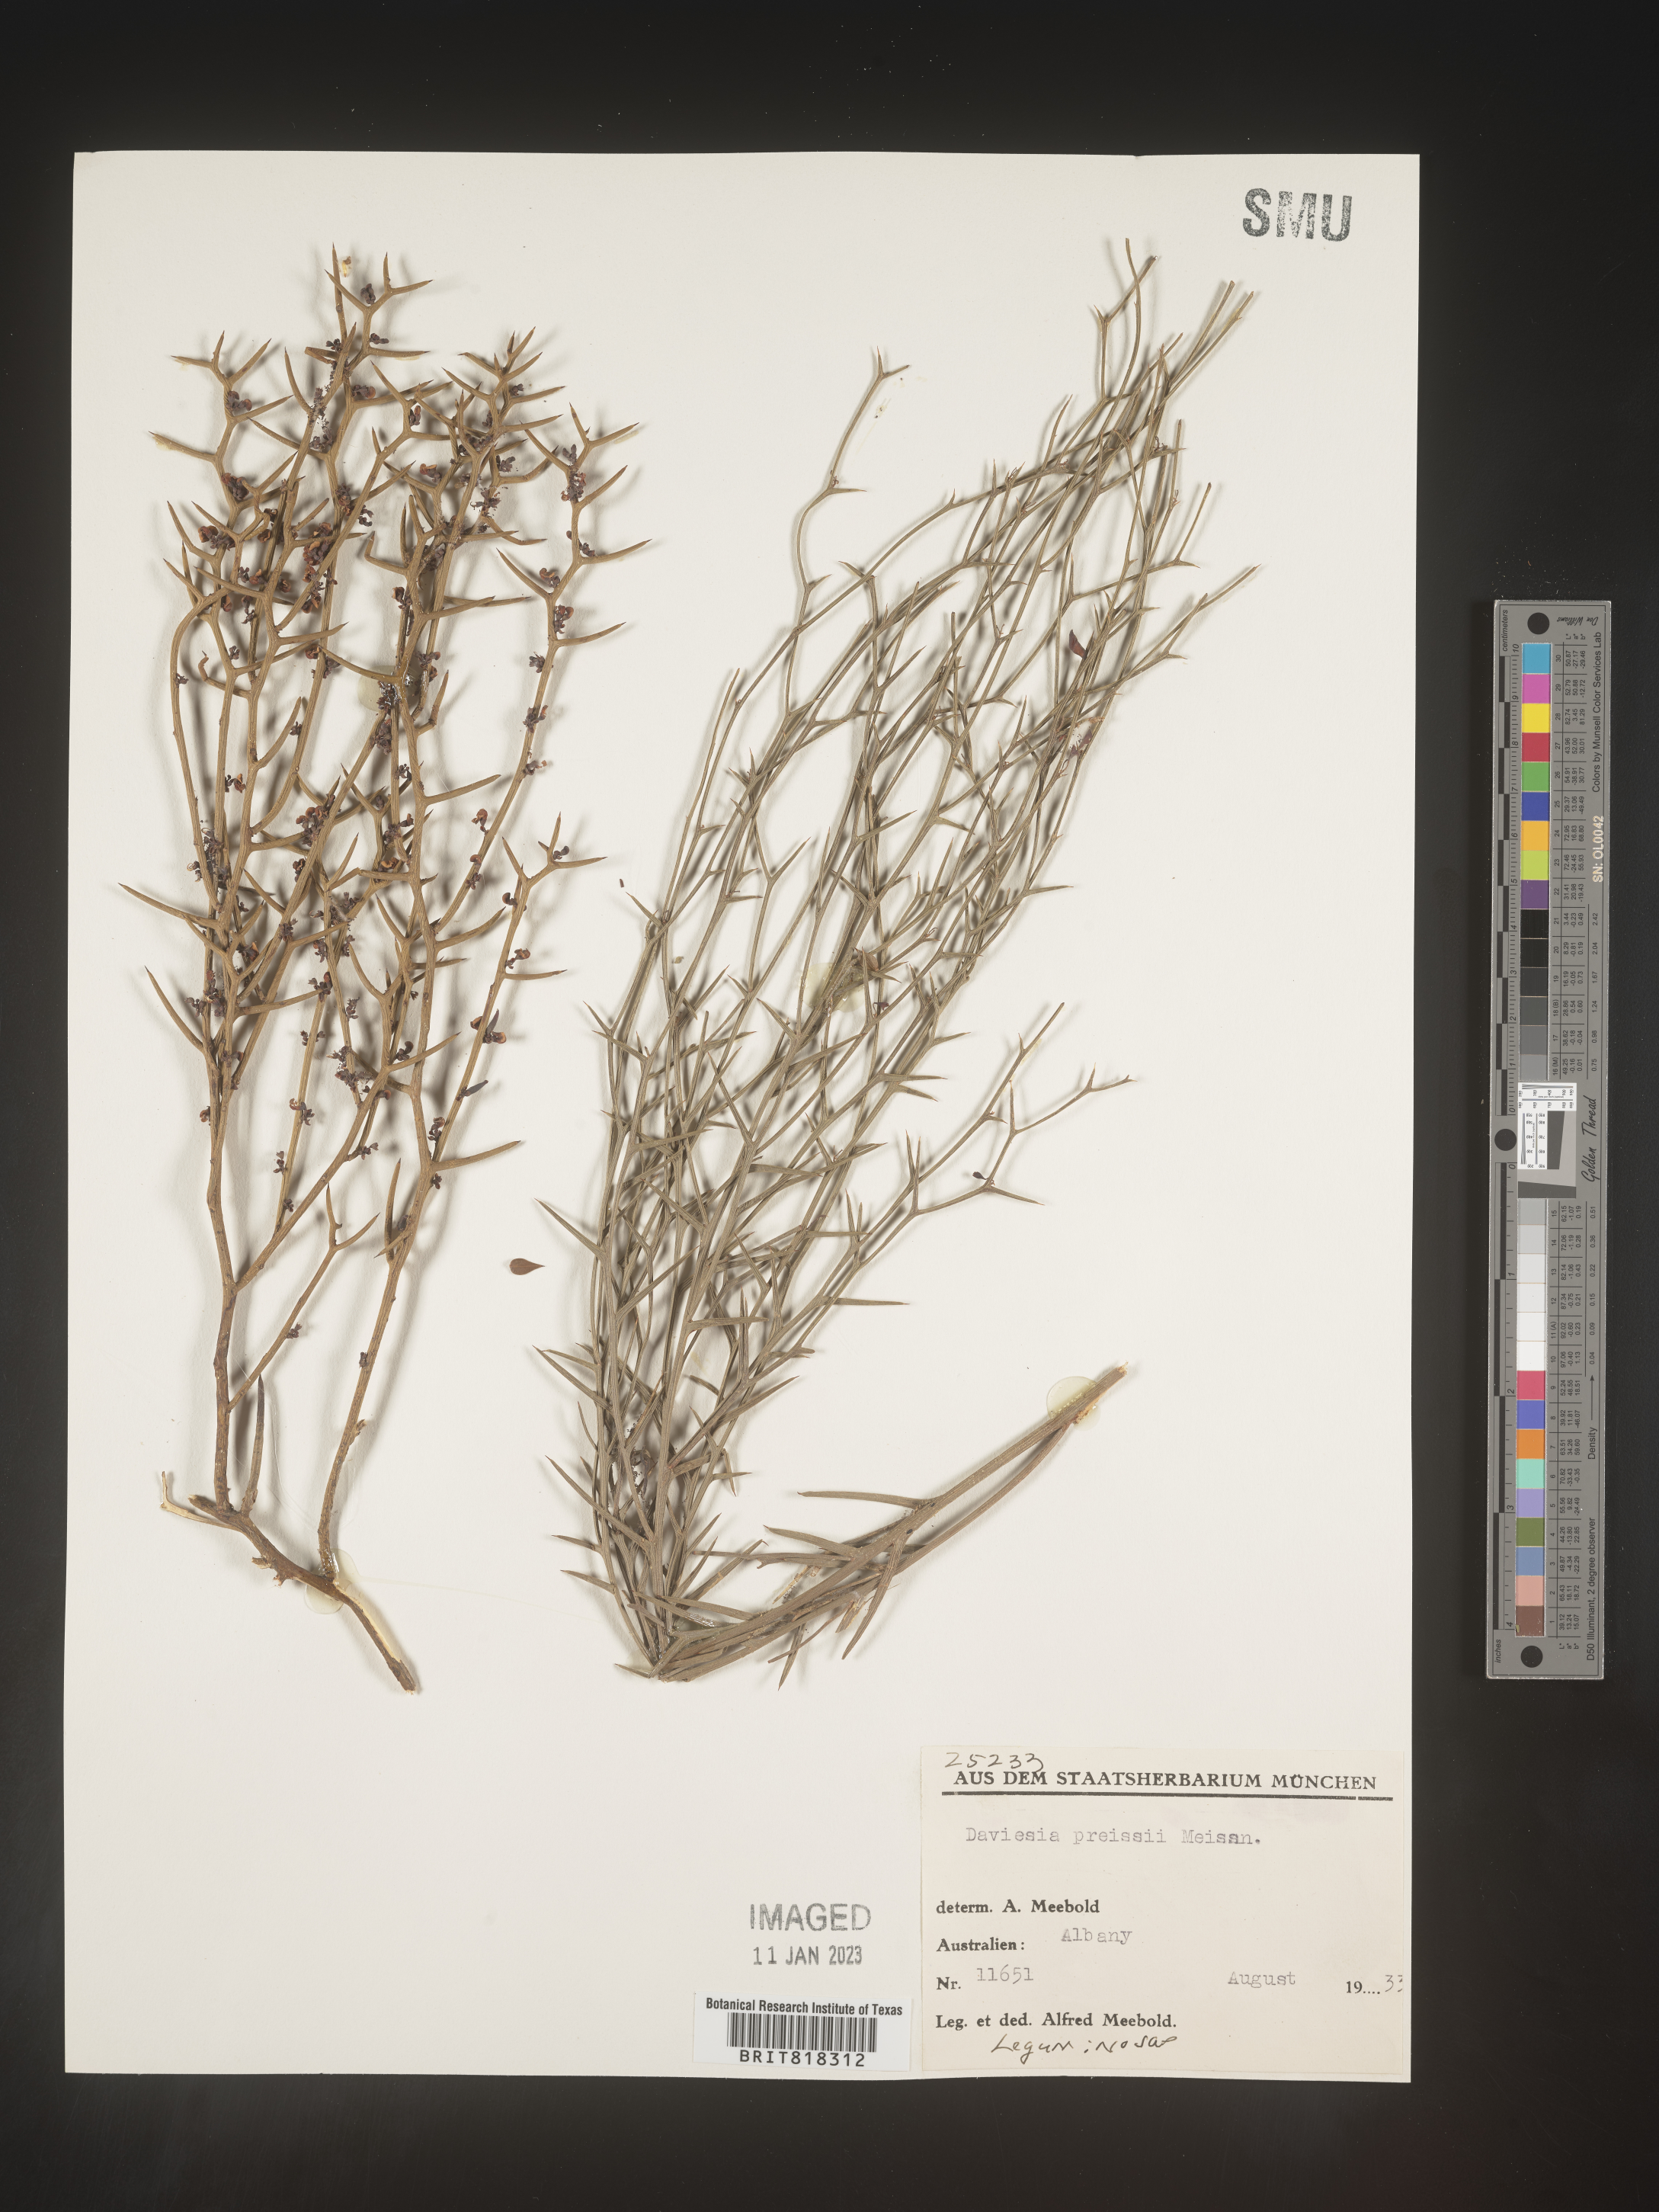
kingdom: Plantae
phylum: Tracheophyta
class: Magnoliopsida
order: Fabales
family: Fabaceae
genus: Daviesia
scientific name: Daviesia
